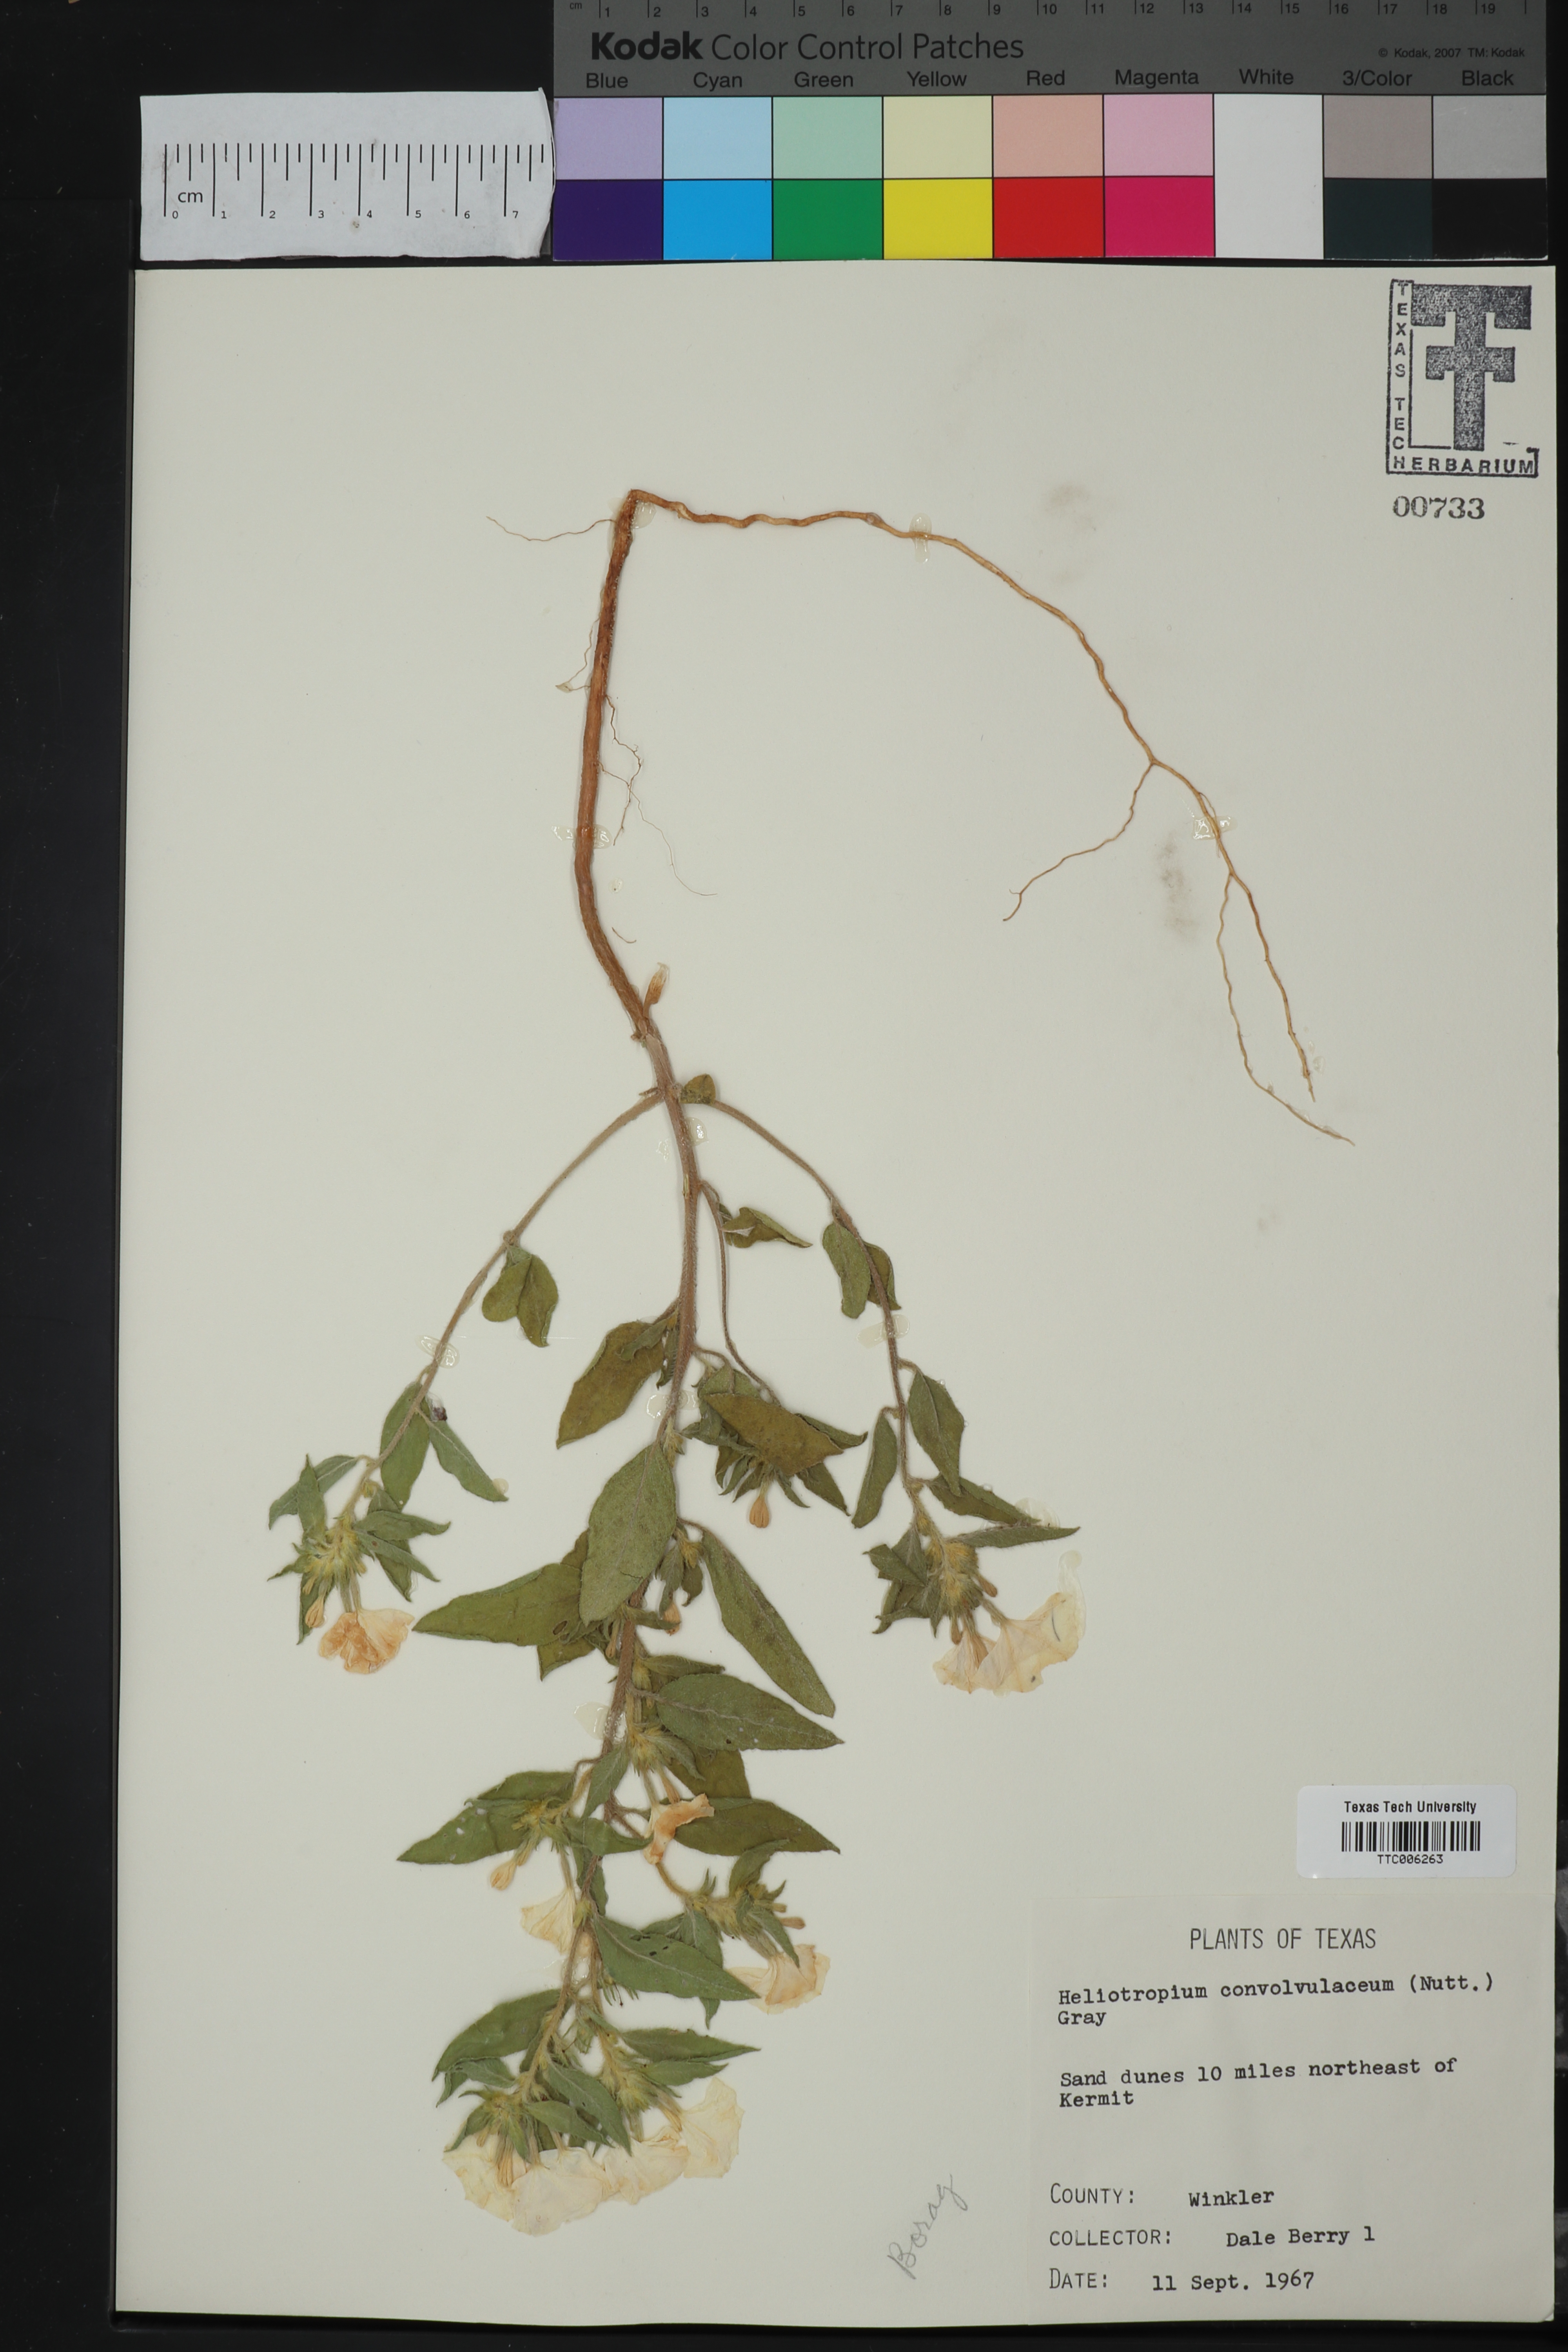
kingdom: Plantae
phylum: Tracheophyta
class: Magnoliopsida
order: Boraginales
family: Heliotropiaceae
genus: Euploca
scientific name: Euploca convolvulacea
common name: Bindweed heliotrope
